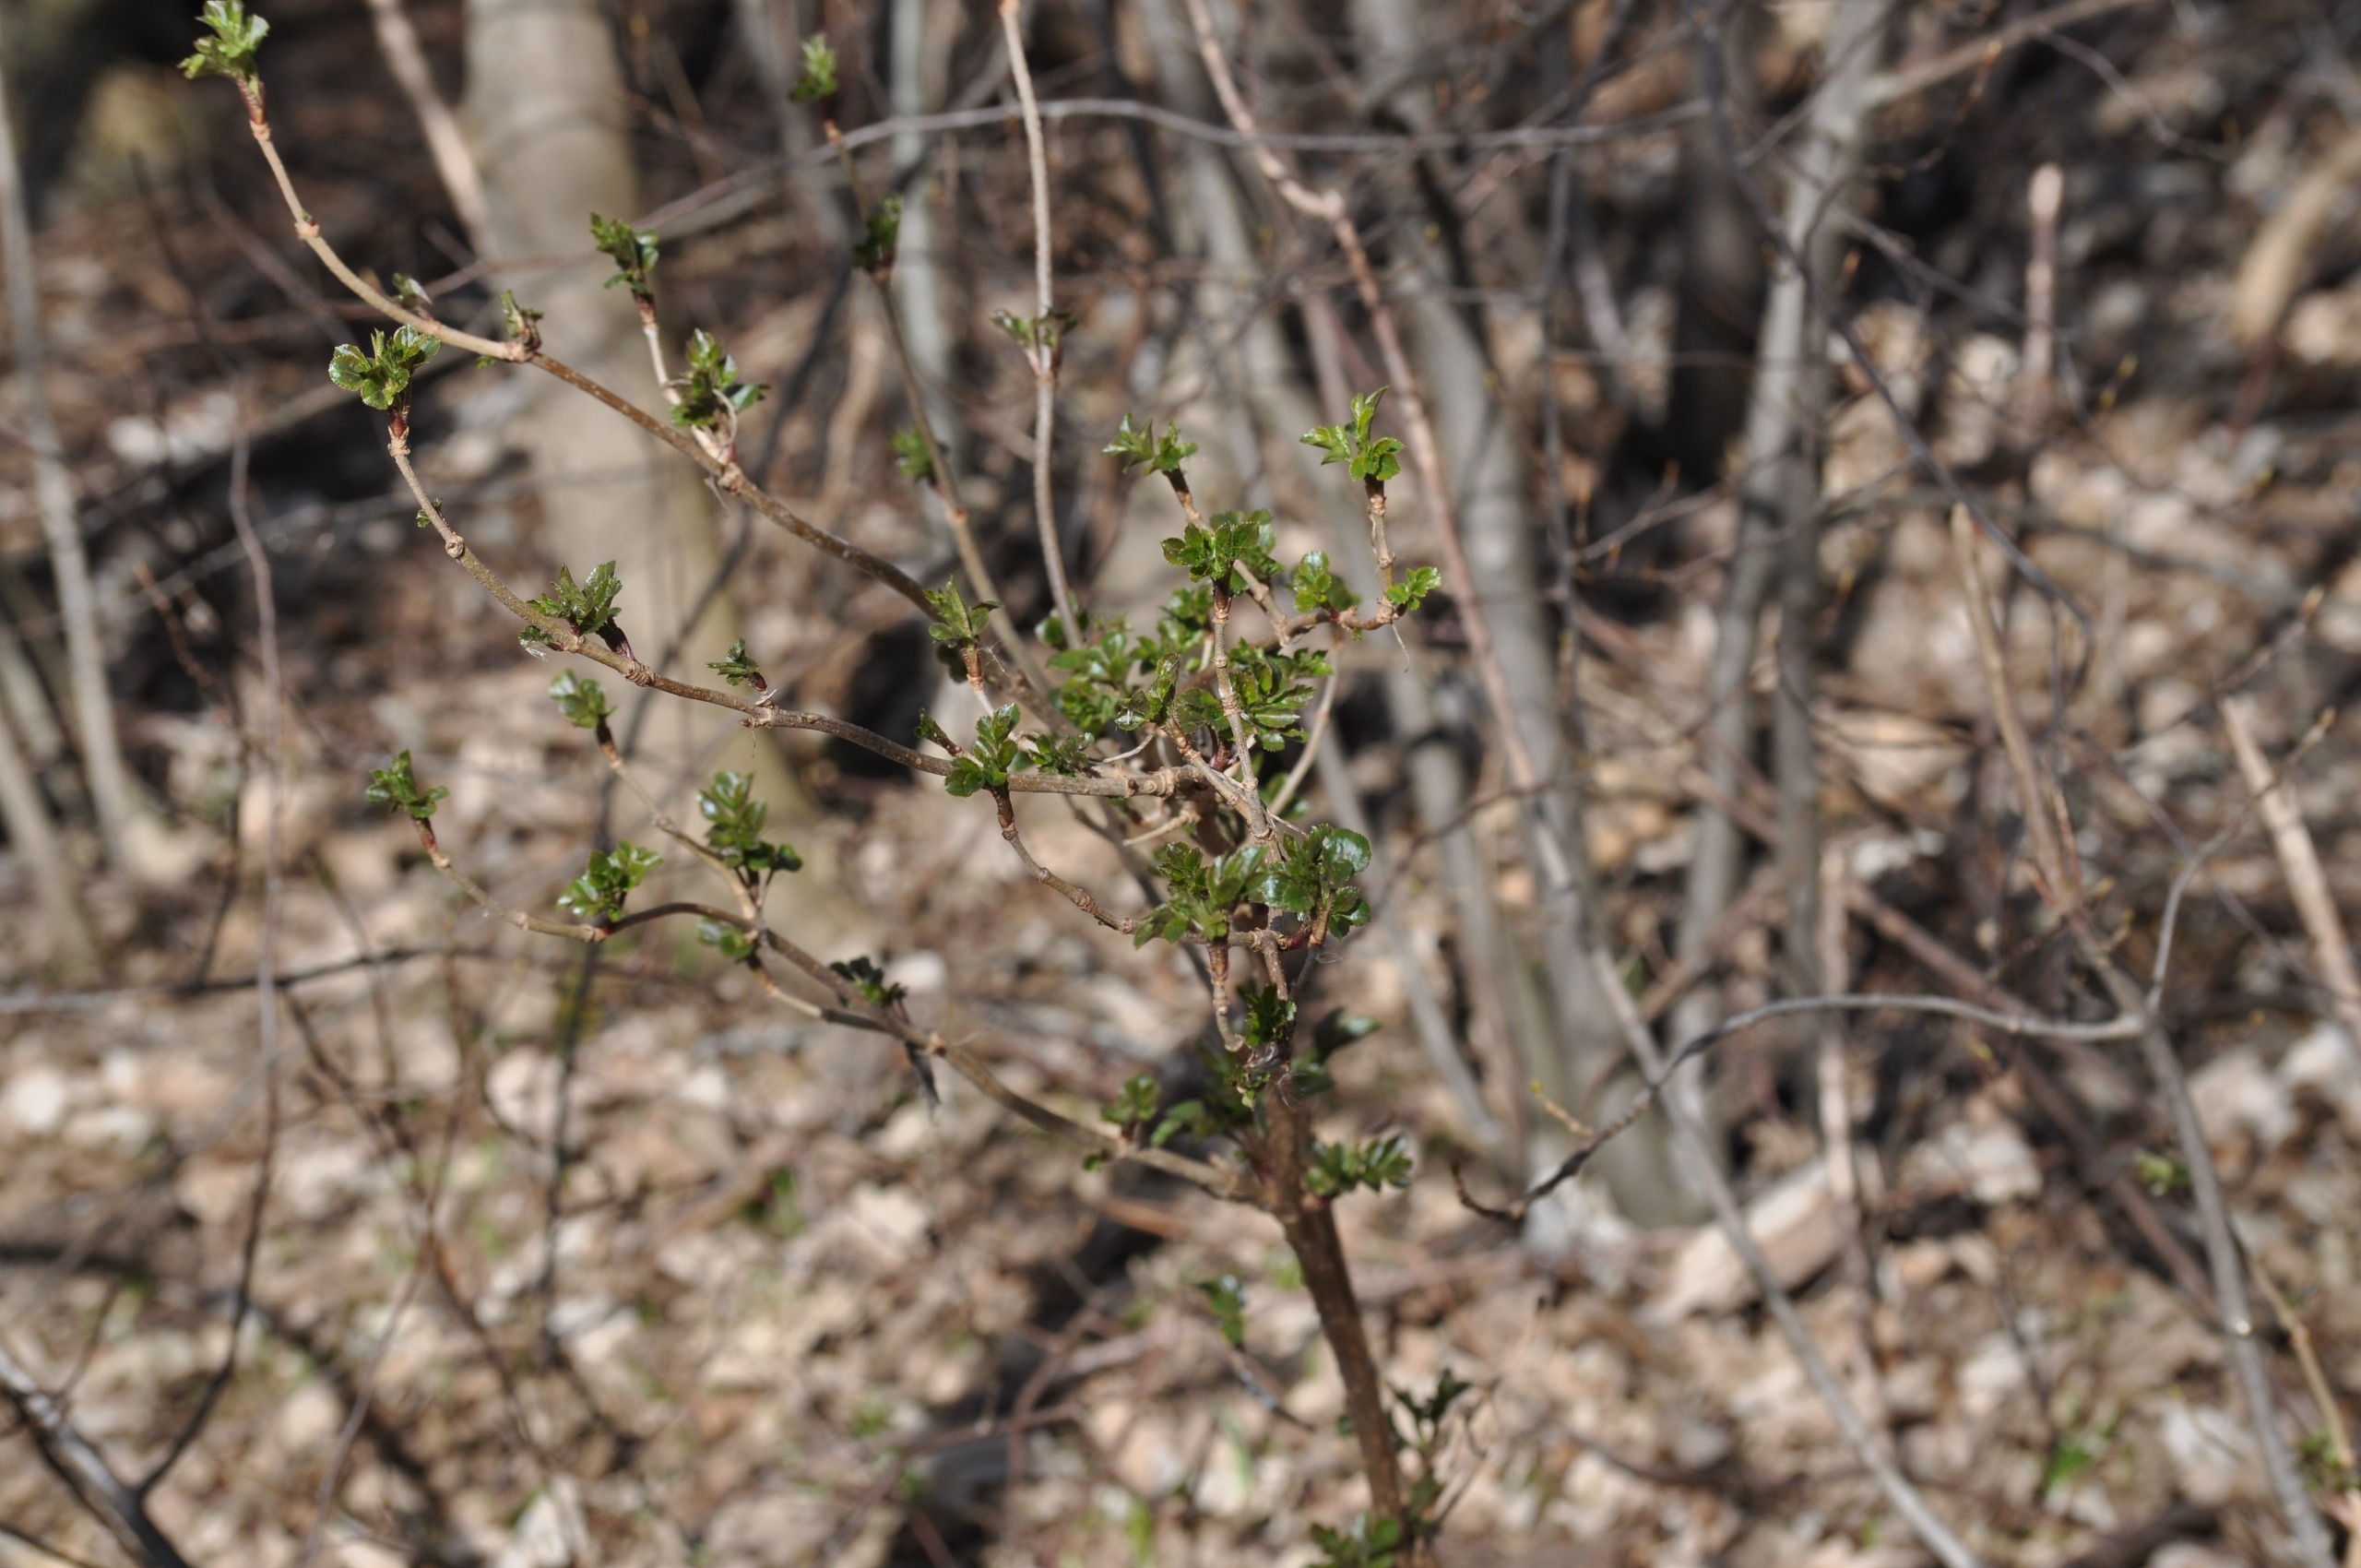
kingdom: Plantae
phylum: Tracheophyta
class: Magnoliopsida
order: Dipsacales
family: Viburnaceae
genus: Sambucus
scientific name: Sambucus nigra
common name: Almindelig hyld
